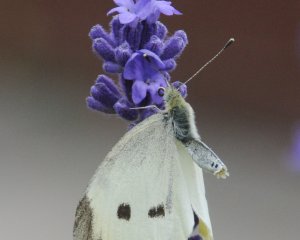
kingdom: Animalia
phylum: Arthropoda
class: Insecta
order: Lepidoptera
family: Pieridae
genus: Pieris
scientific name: Pieris rapae
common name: Cabbage White
